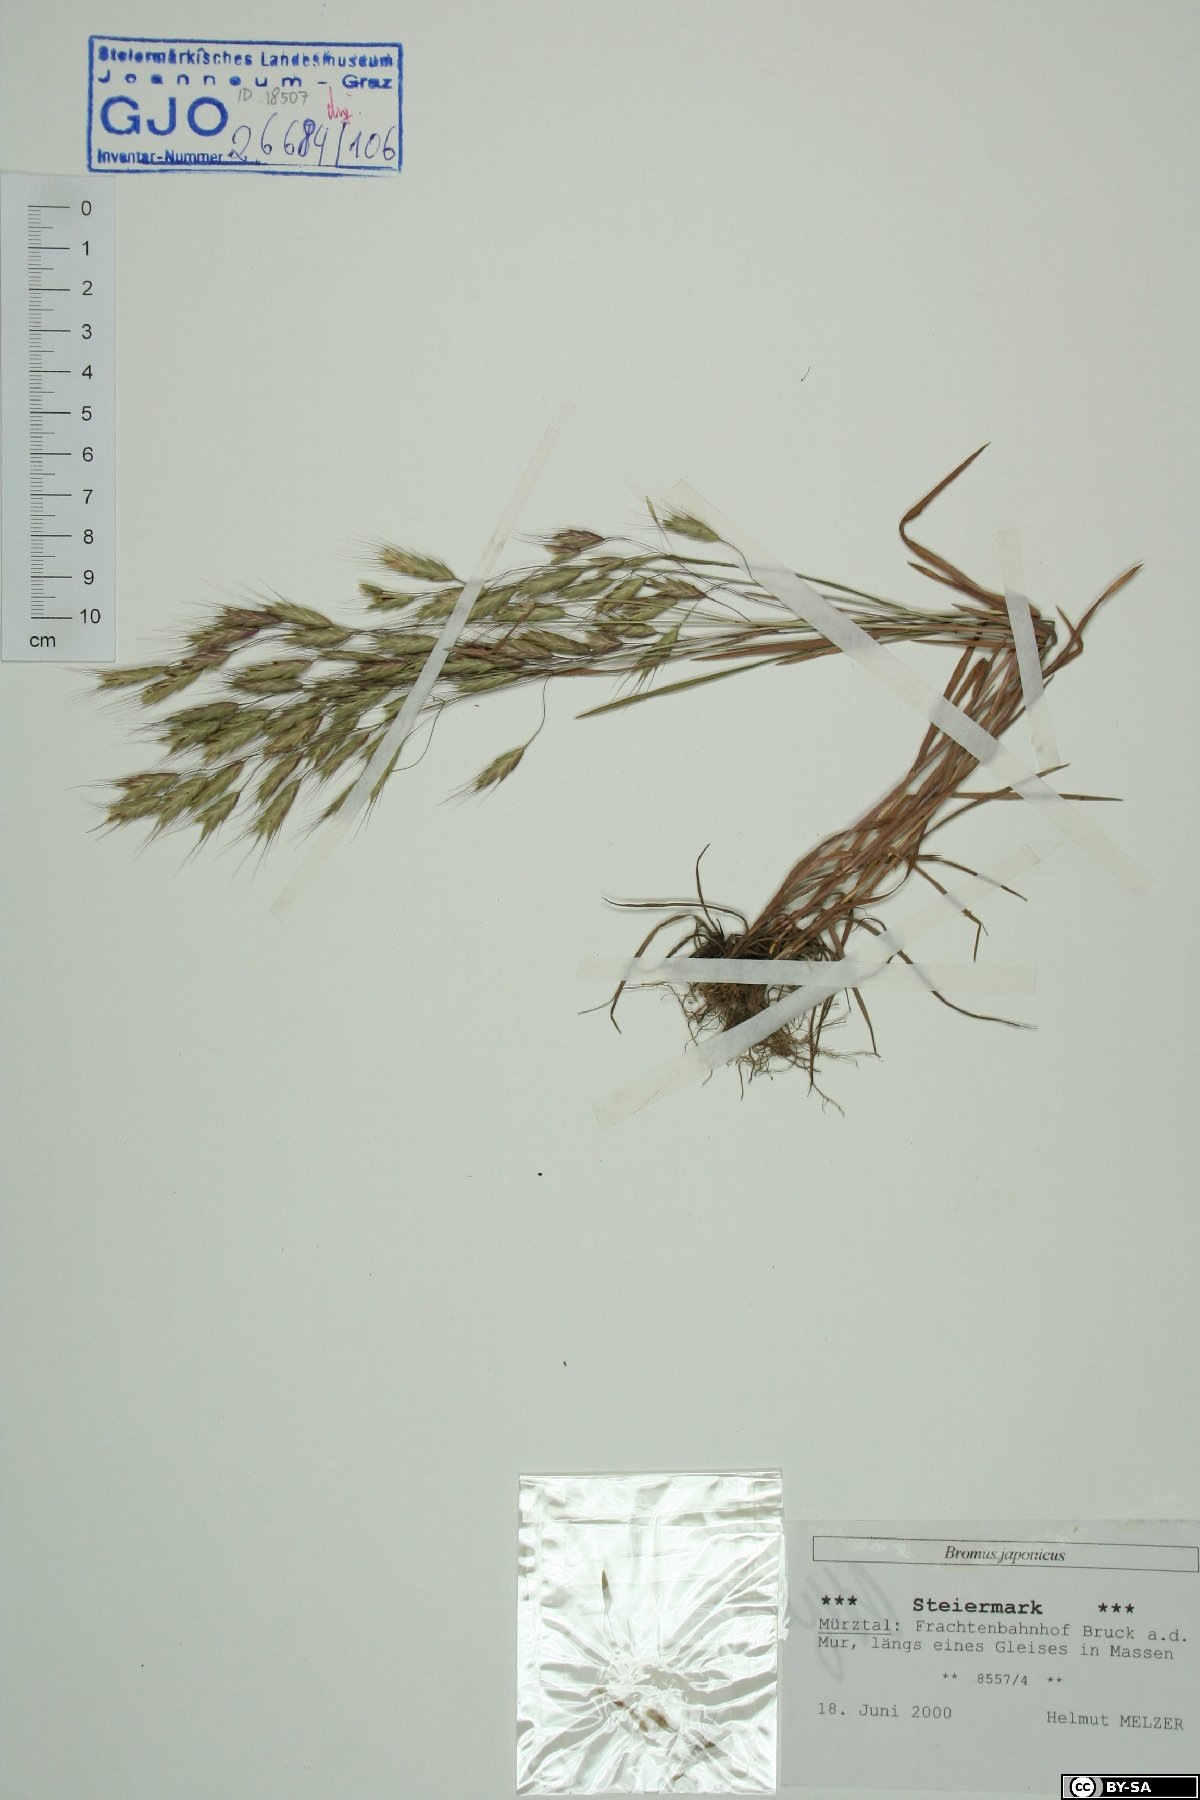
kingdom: Plantae
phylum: Tracheophyta
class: Liliopsida
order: Poales
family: Poaceae
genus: Bromus
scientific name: Bromus japonicus
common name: Japanese brome
